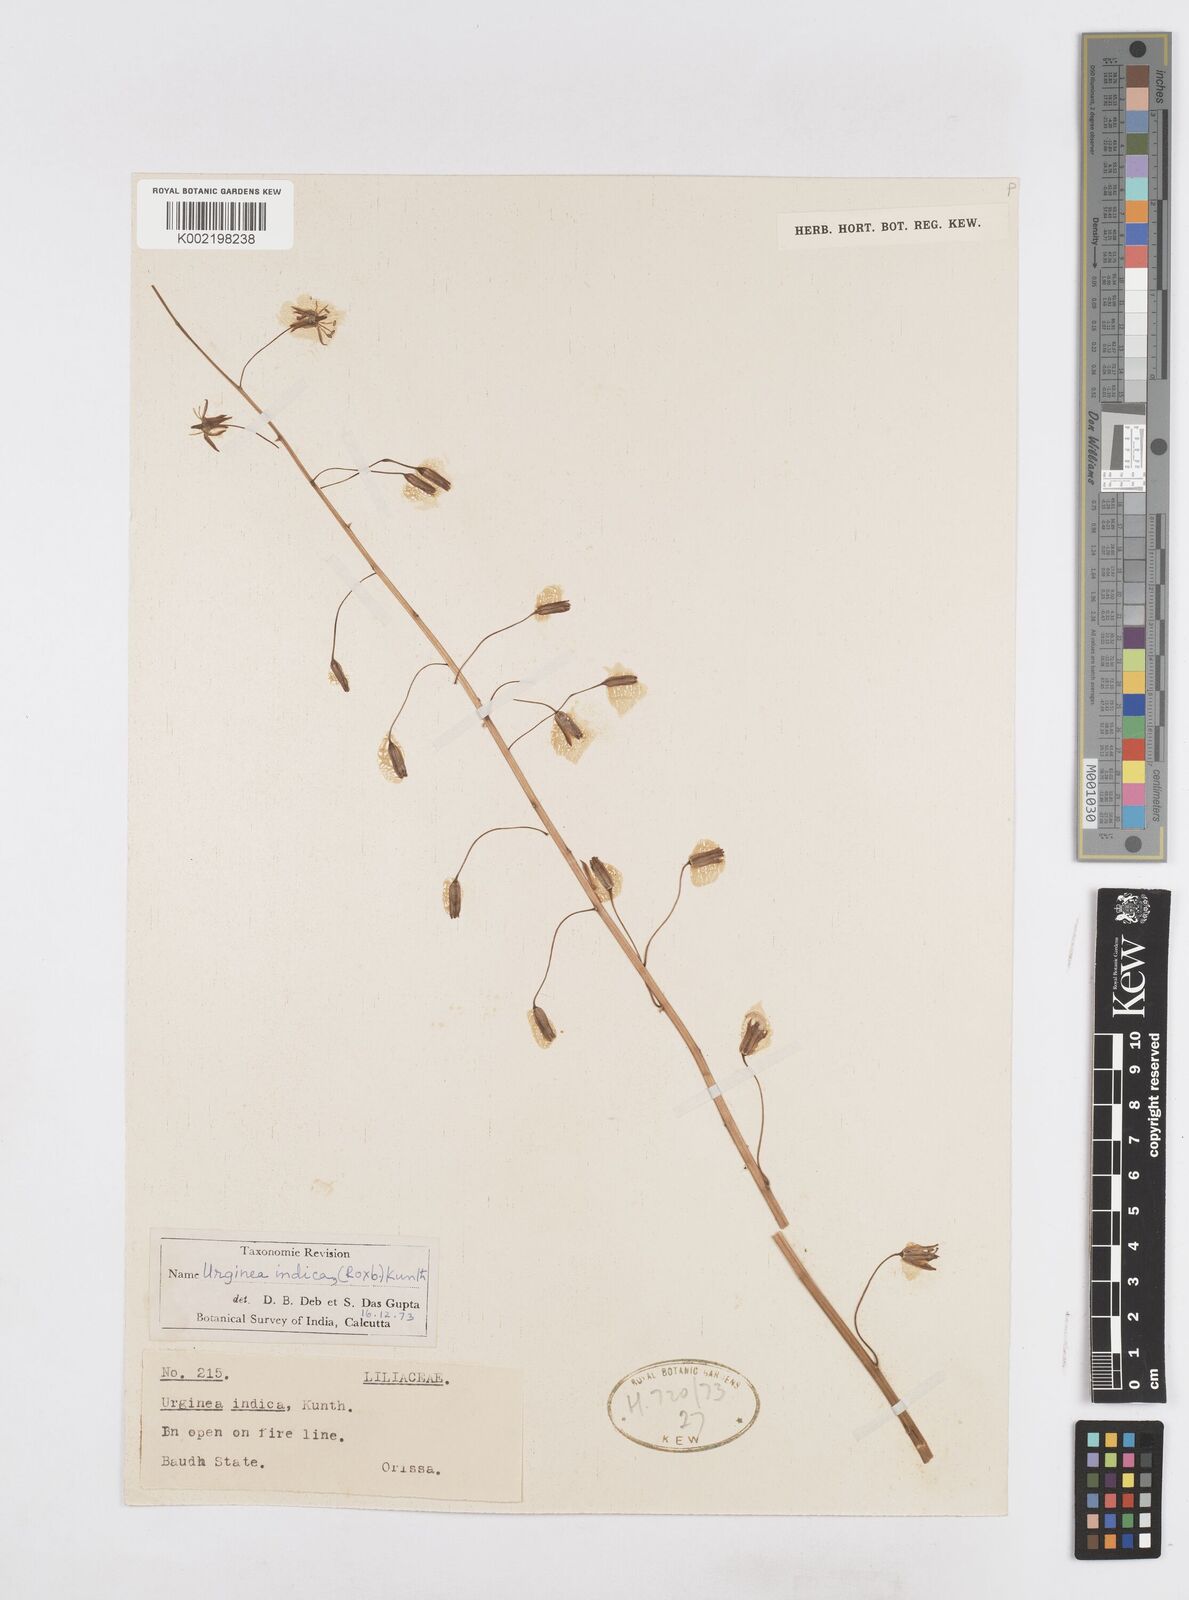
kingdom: Plantae
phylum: Tracheophyta
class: Liliopsida
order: Asparagales
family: Asparagaceae
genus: Drimia
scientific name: Drimia indica
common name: Indian-squill
